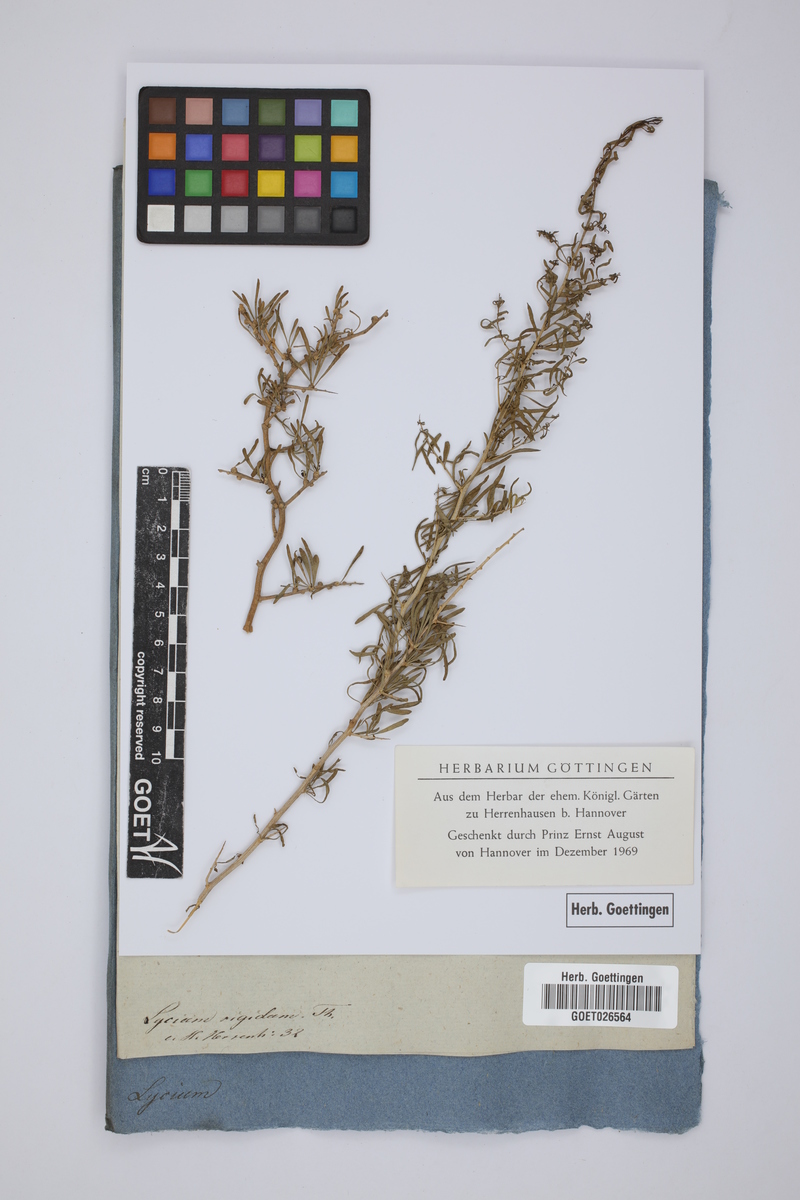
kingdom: Plantae
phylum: Tracheophyta
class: Magnoliopsida
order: Solanales
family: Solanaceae
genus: Lycium
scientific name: Lycium afrum
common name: Kaffir boxthorn
